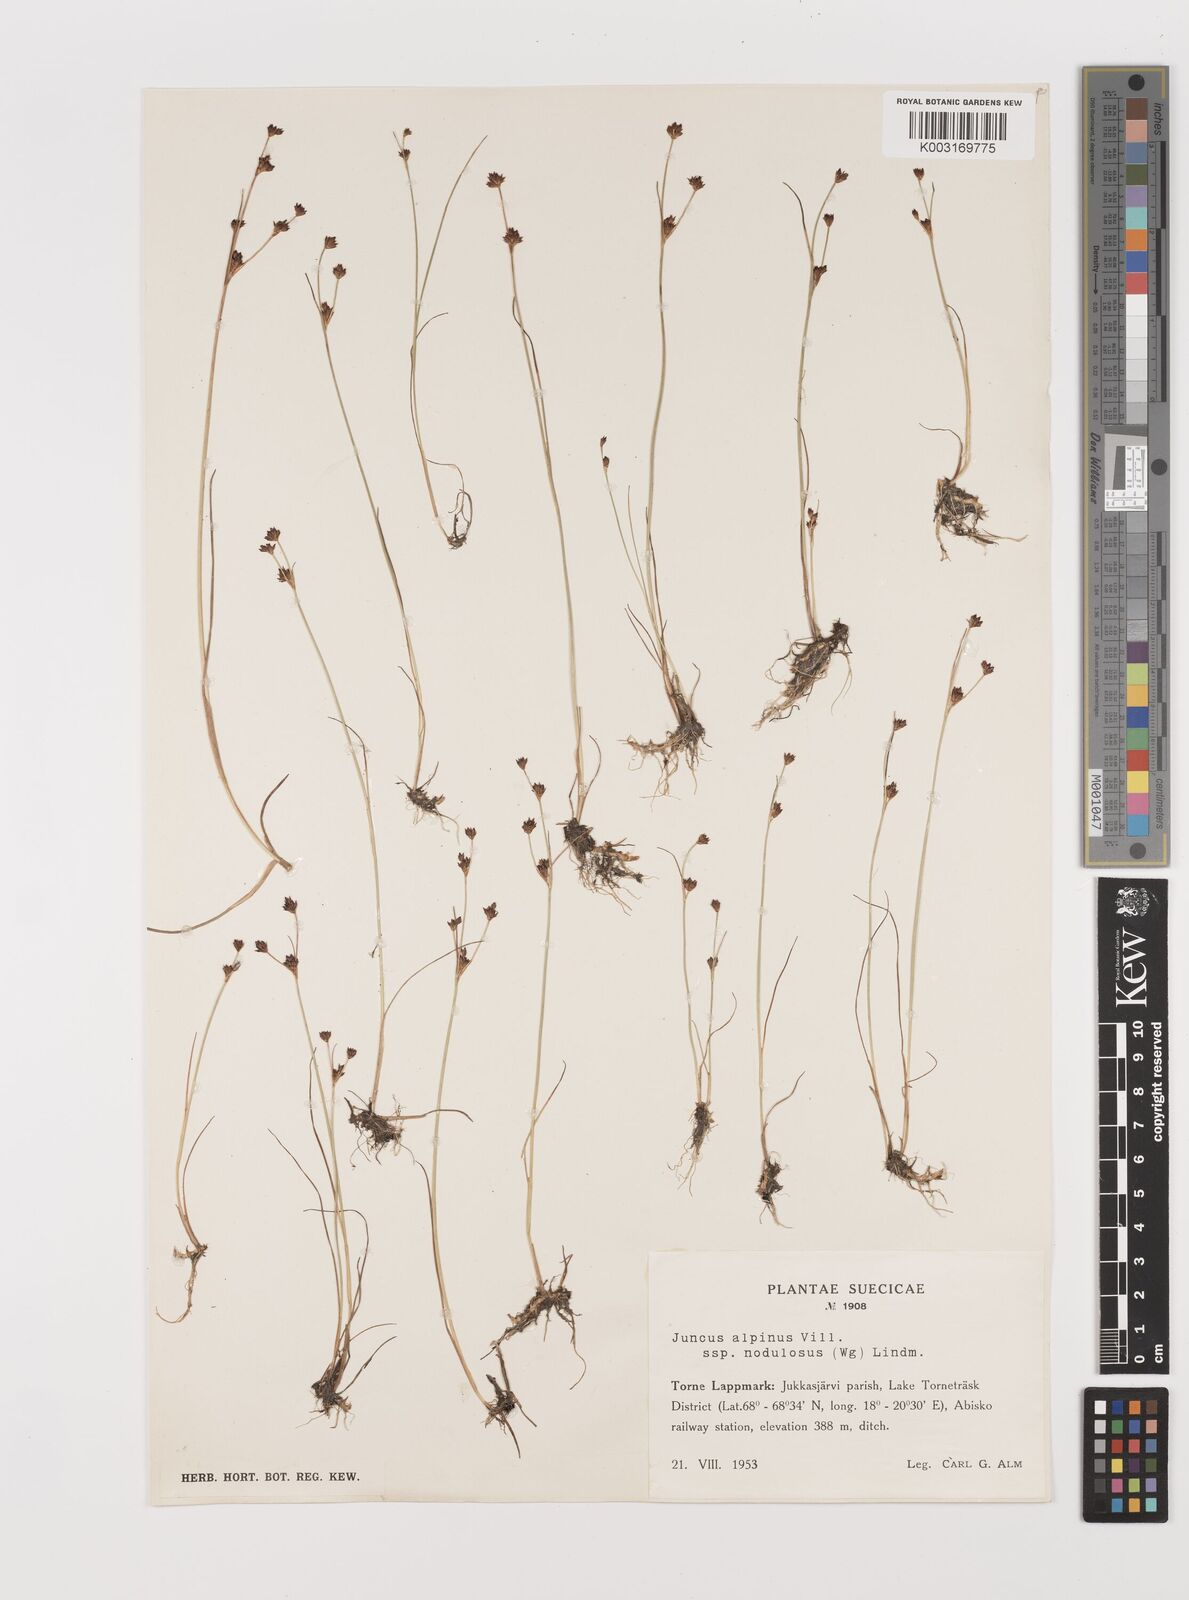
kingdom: Plantae
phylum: Tracheophyta
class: Liliopsida
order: Poales
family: Juncaceae
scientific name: Juncaceae
